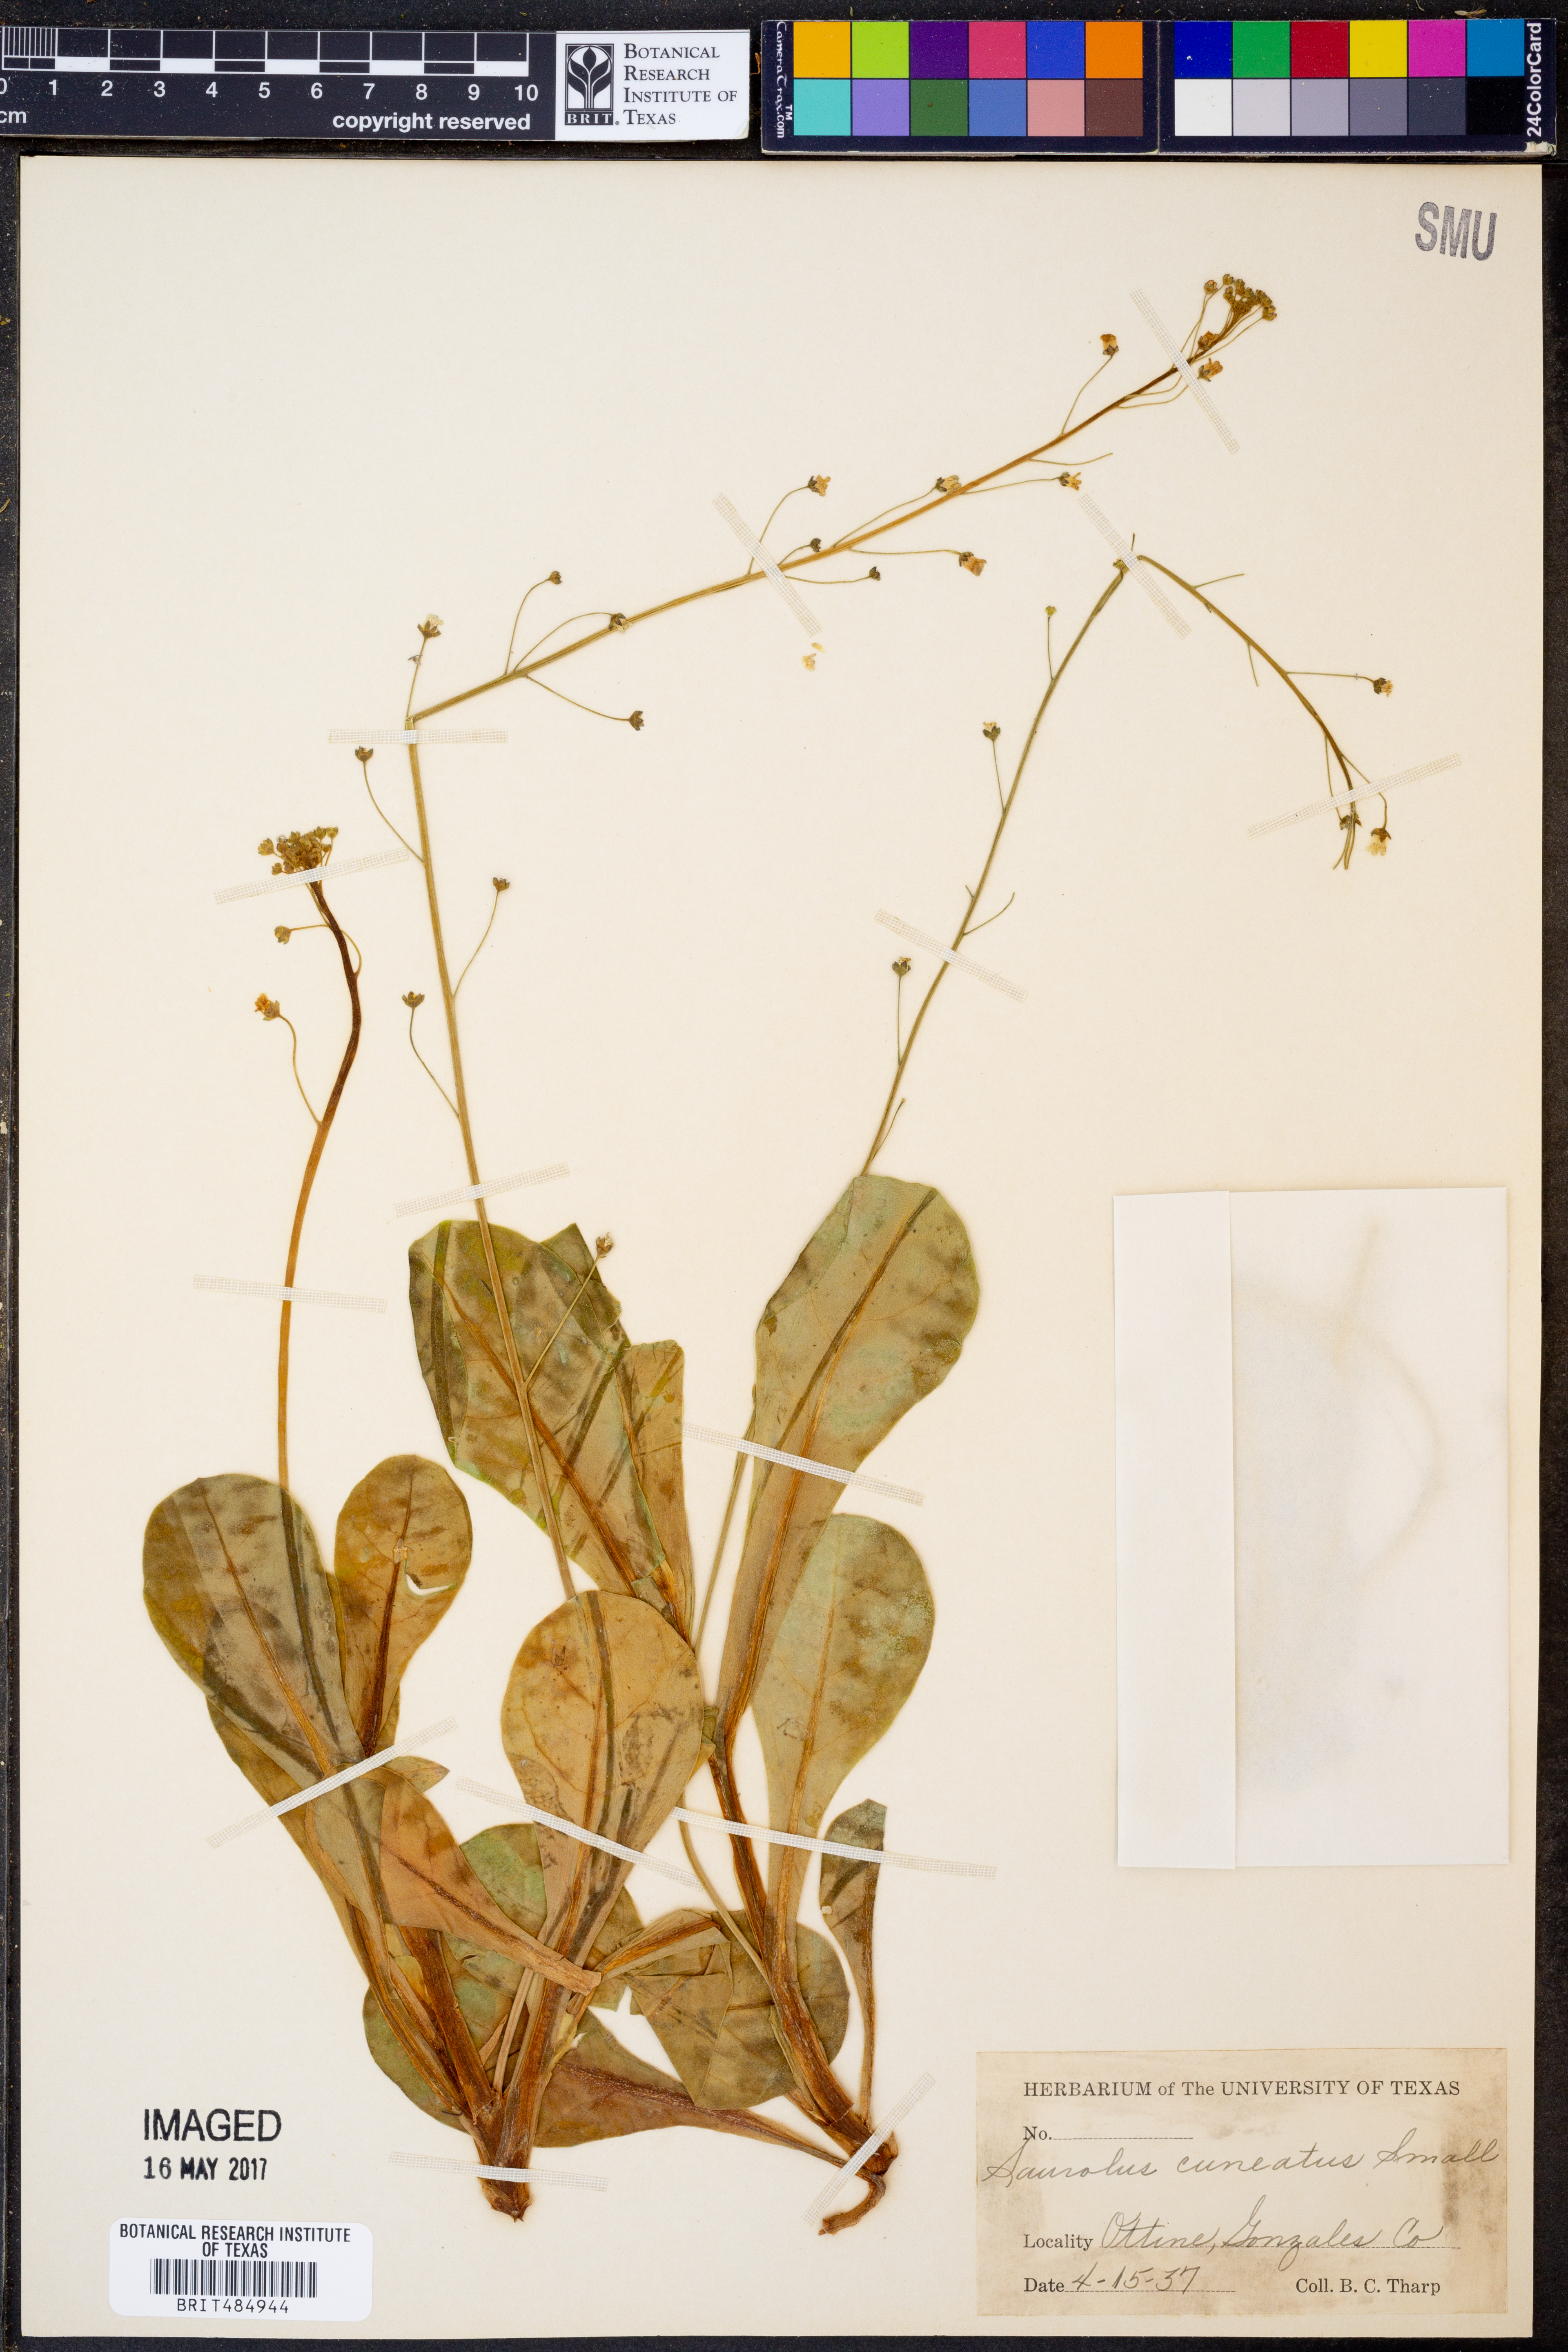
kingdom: Plantae
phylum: Tracheophyta
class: Magnoliopsida
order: Ericales
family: Primulaceae
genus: Samolus
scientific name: Samolus ebracteatus
